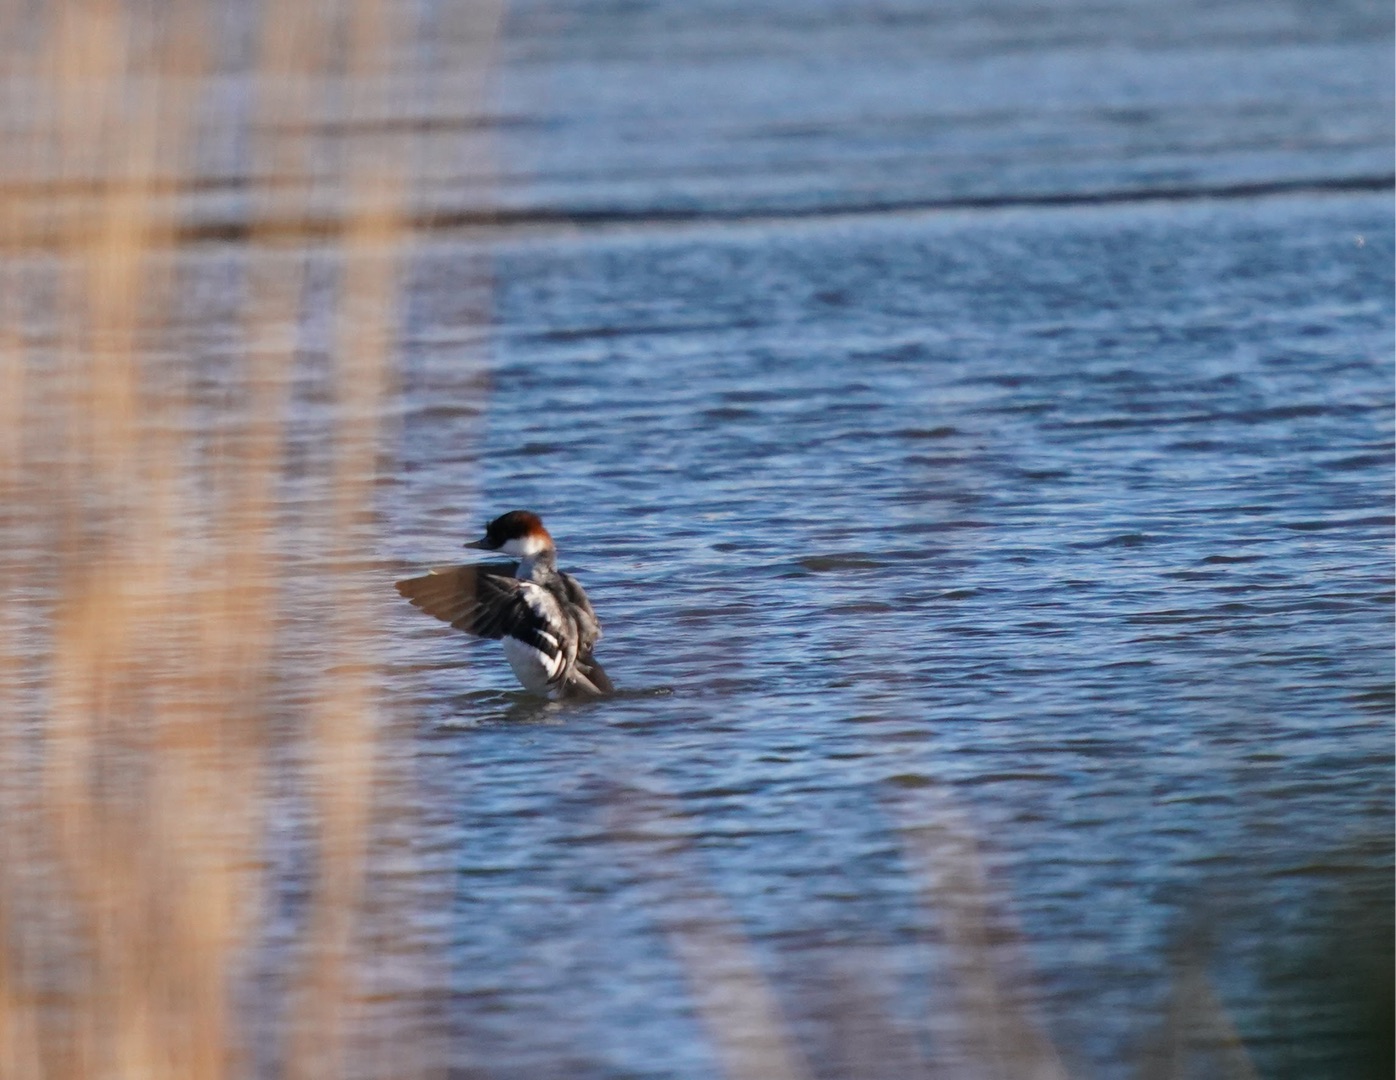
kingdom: Animalia
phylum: Chordata
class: Aves
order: Anseriformes
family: Anatidae
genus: Mergellus
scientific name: Mergellus albellus
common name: Lille skallesluger
